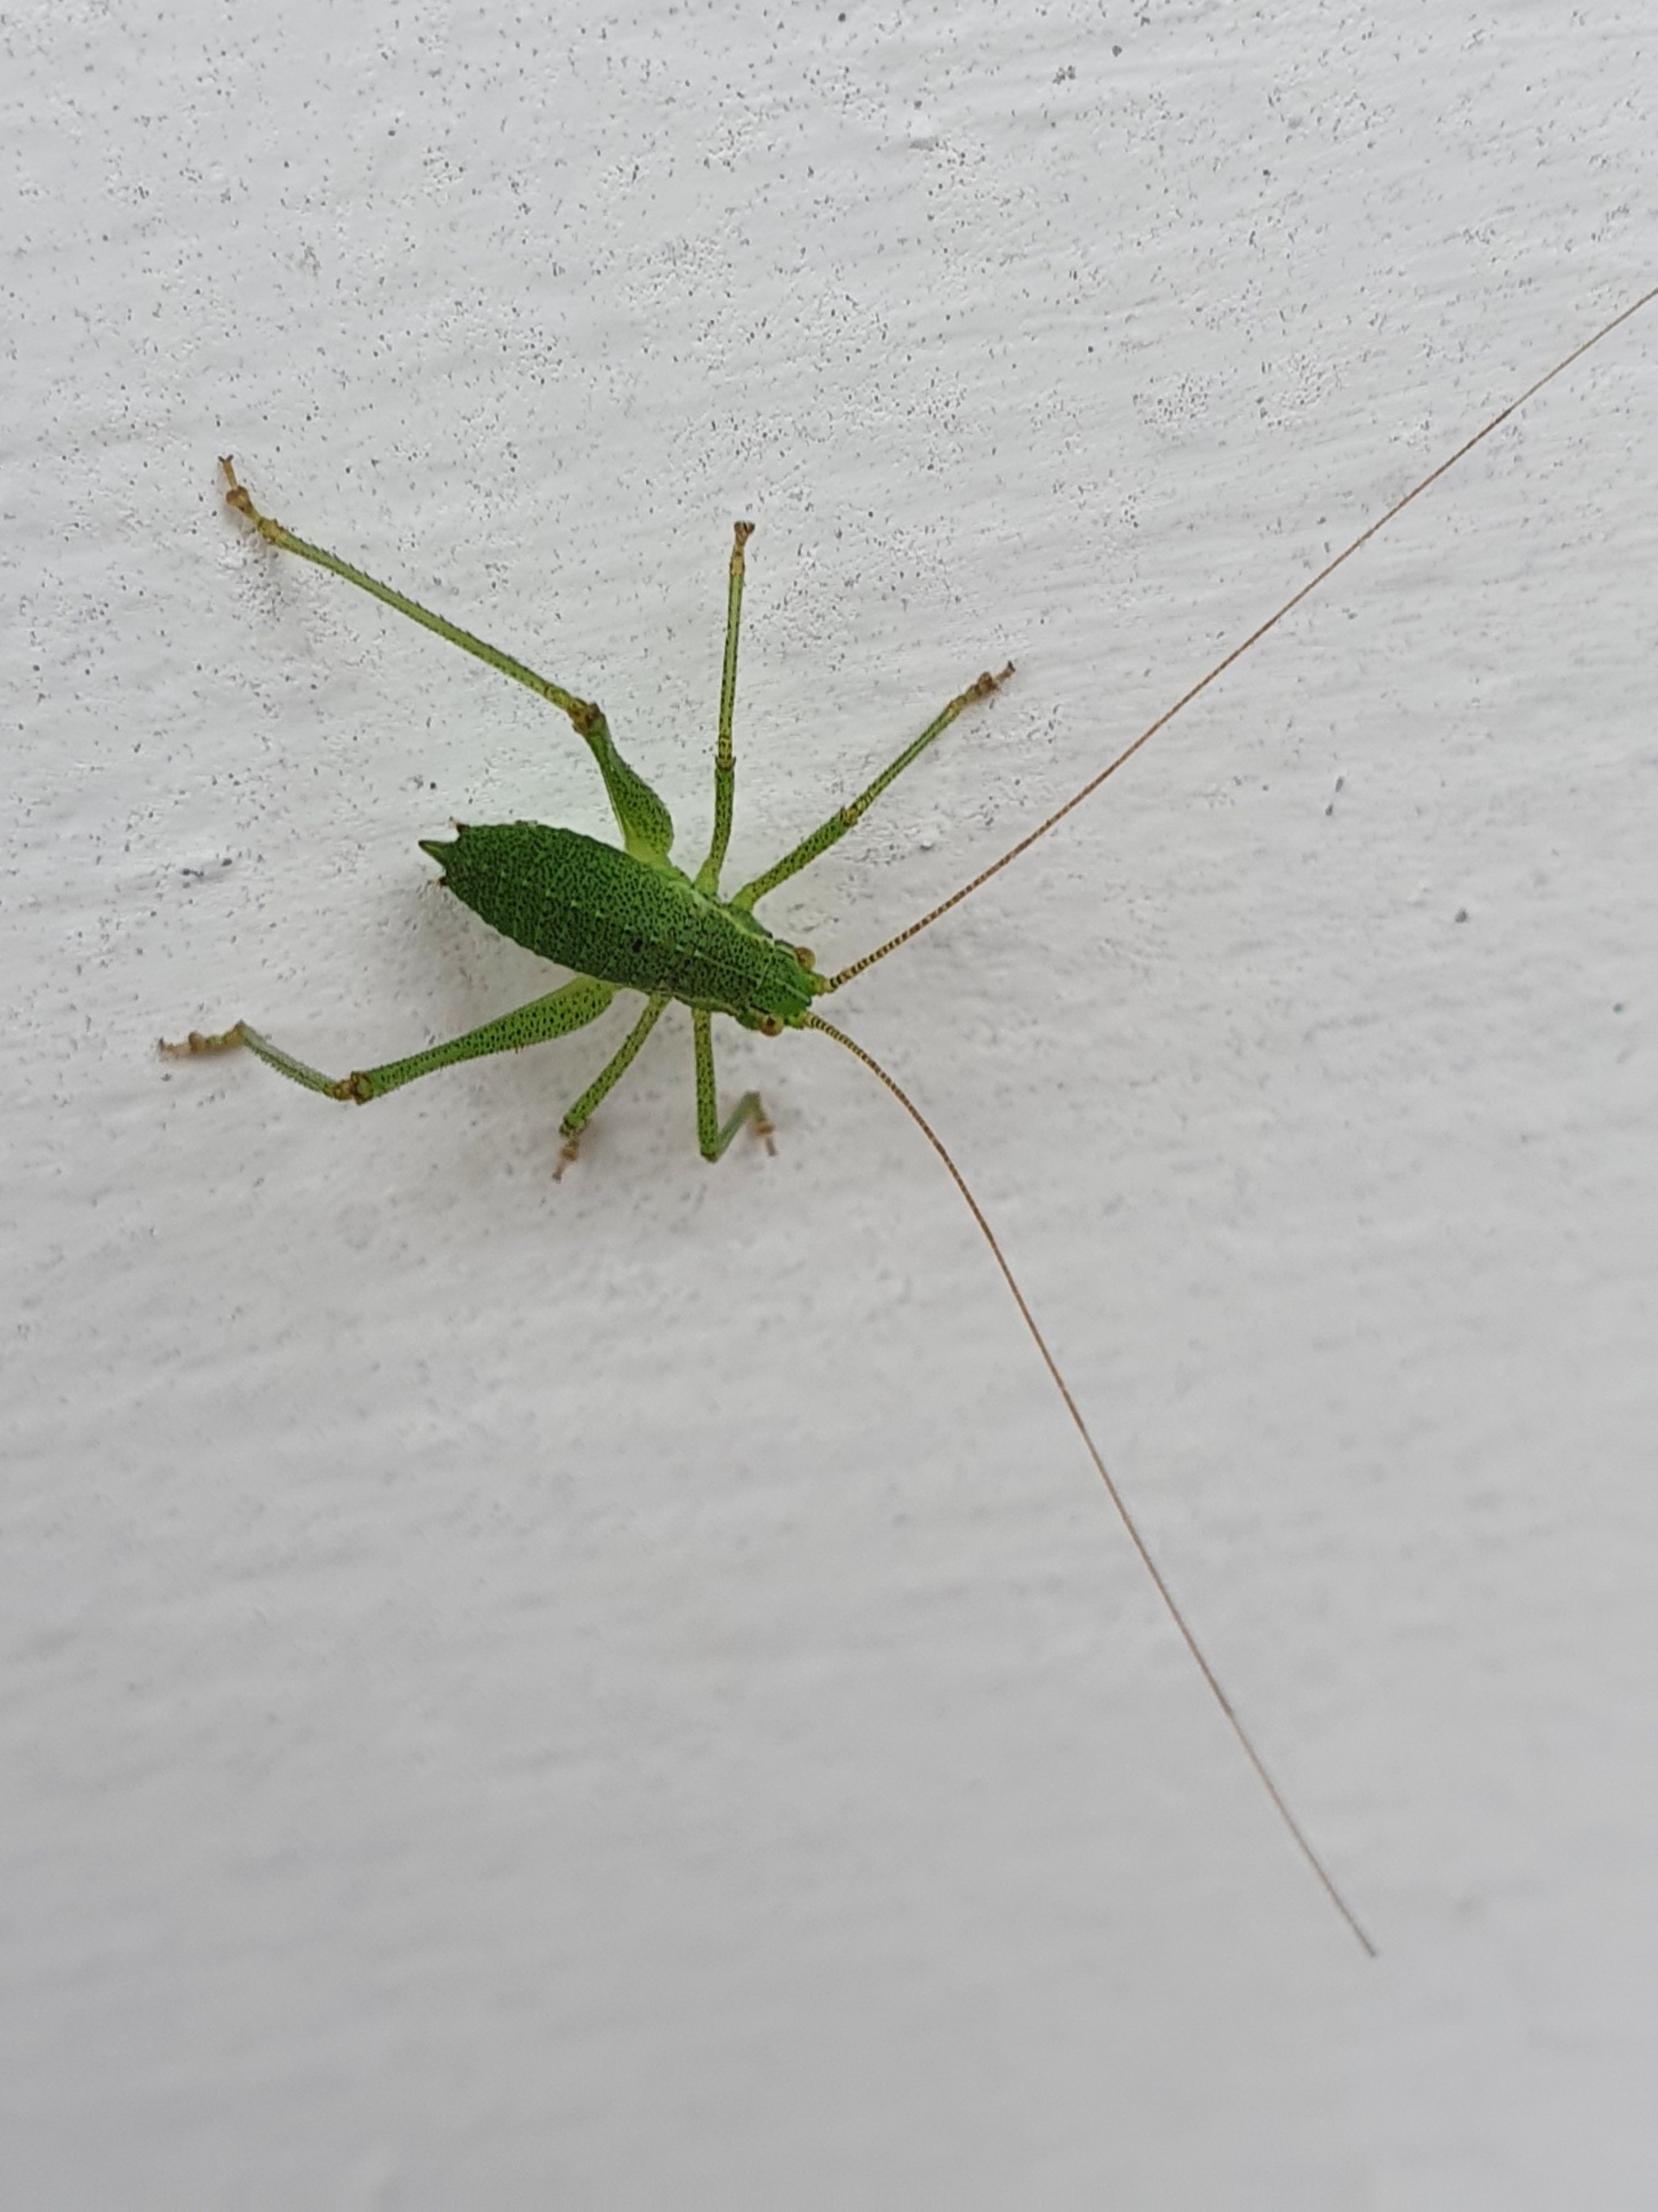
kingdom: Animalia
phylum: Arthropoda
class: Insecta
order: Orthoptera
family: Tettigoniidae
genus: Leptophyes
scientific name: Leptophyes punctatissima
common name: Krumknivgræshoppe
